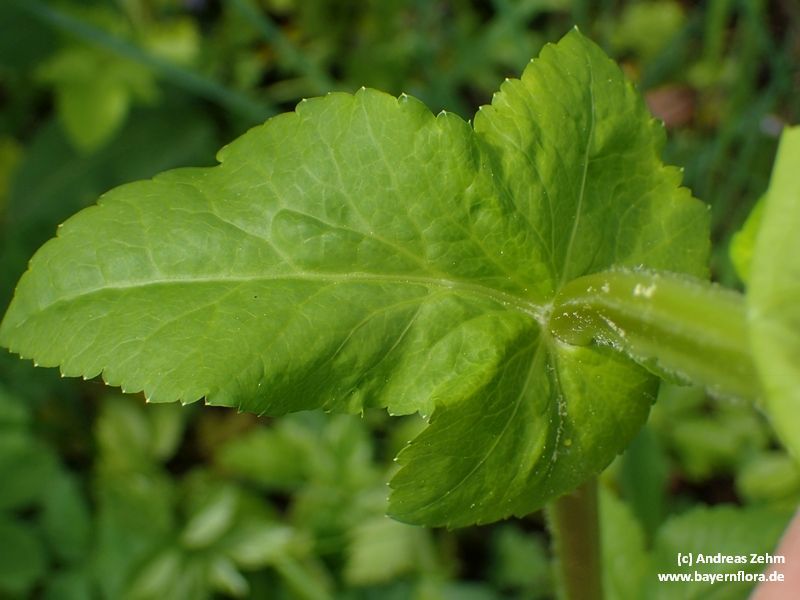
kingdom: Plantae
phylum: Tracheophyta
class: Magnoliopsida
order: Apiales
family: Apiaceae
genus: Smyrnium
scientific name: Smyrnium perfoliatum
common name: Perfoliate alexanders
